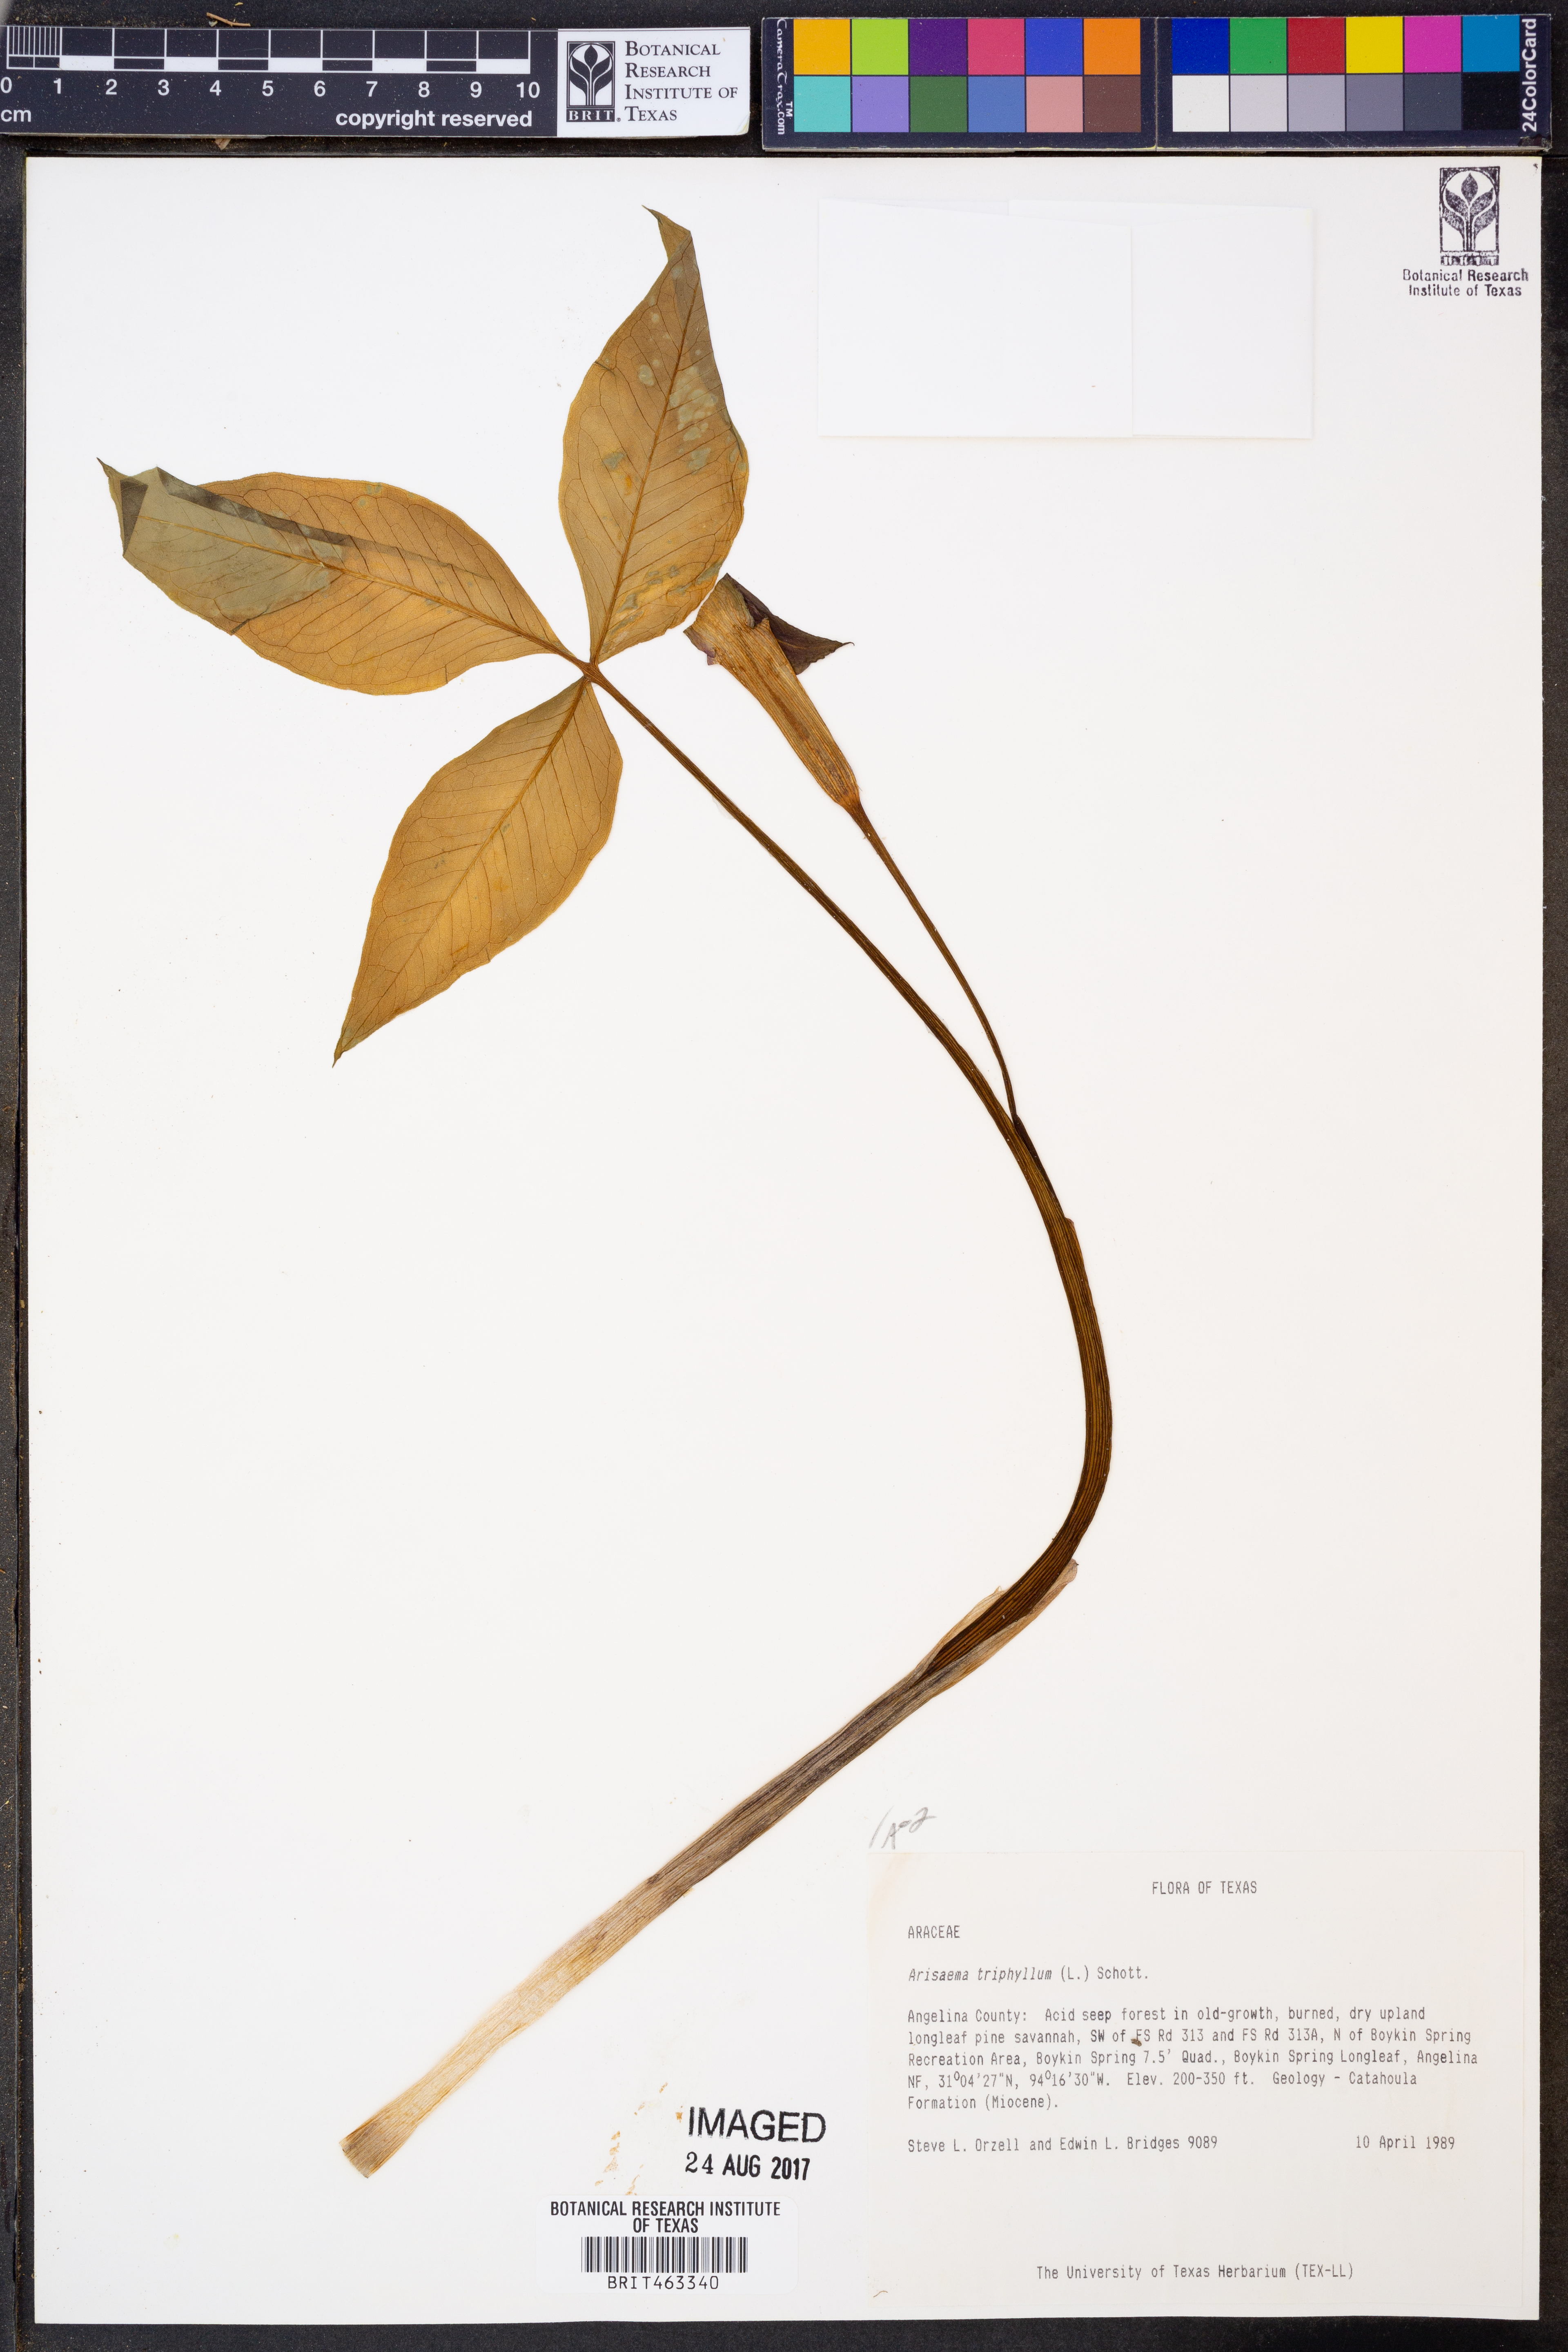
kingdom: Plantae
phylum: Tracheophyta
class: Liliopsida
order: Alismatales
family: Araceae
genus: Arisaema
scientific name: Arisaema triphyllum
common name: Jack-in-the-pulpit
